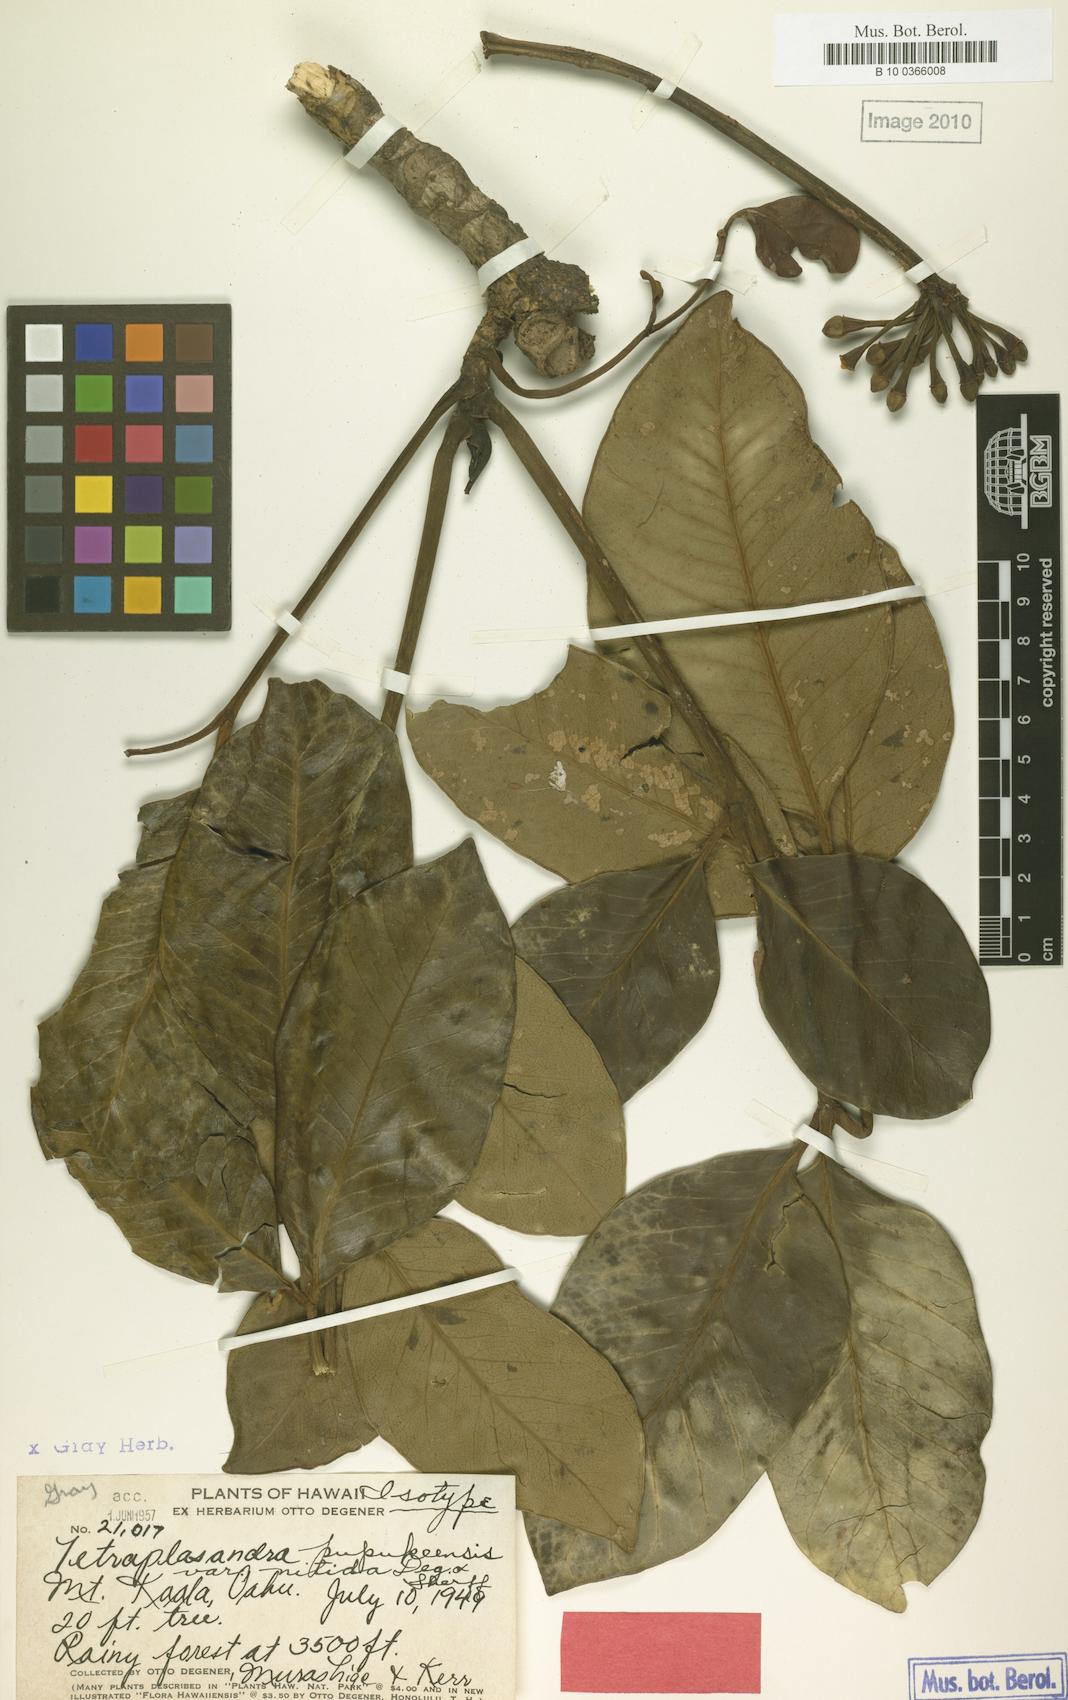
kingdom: Plantae
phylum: Tracheophyta
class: Magnoliopsida
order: Apiales
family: Araliaceae
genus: Polyscias
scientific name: Polyscias oahuensis
